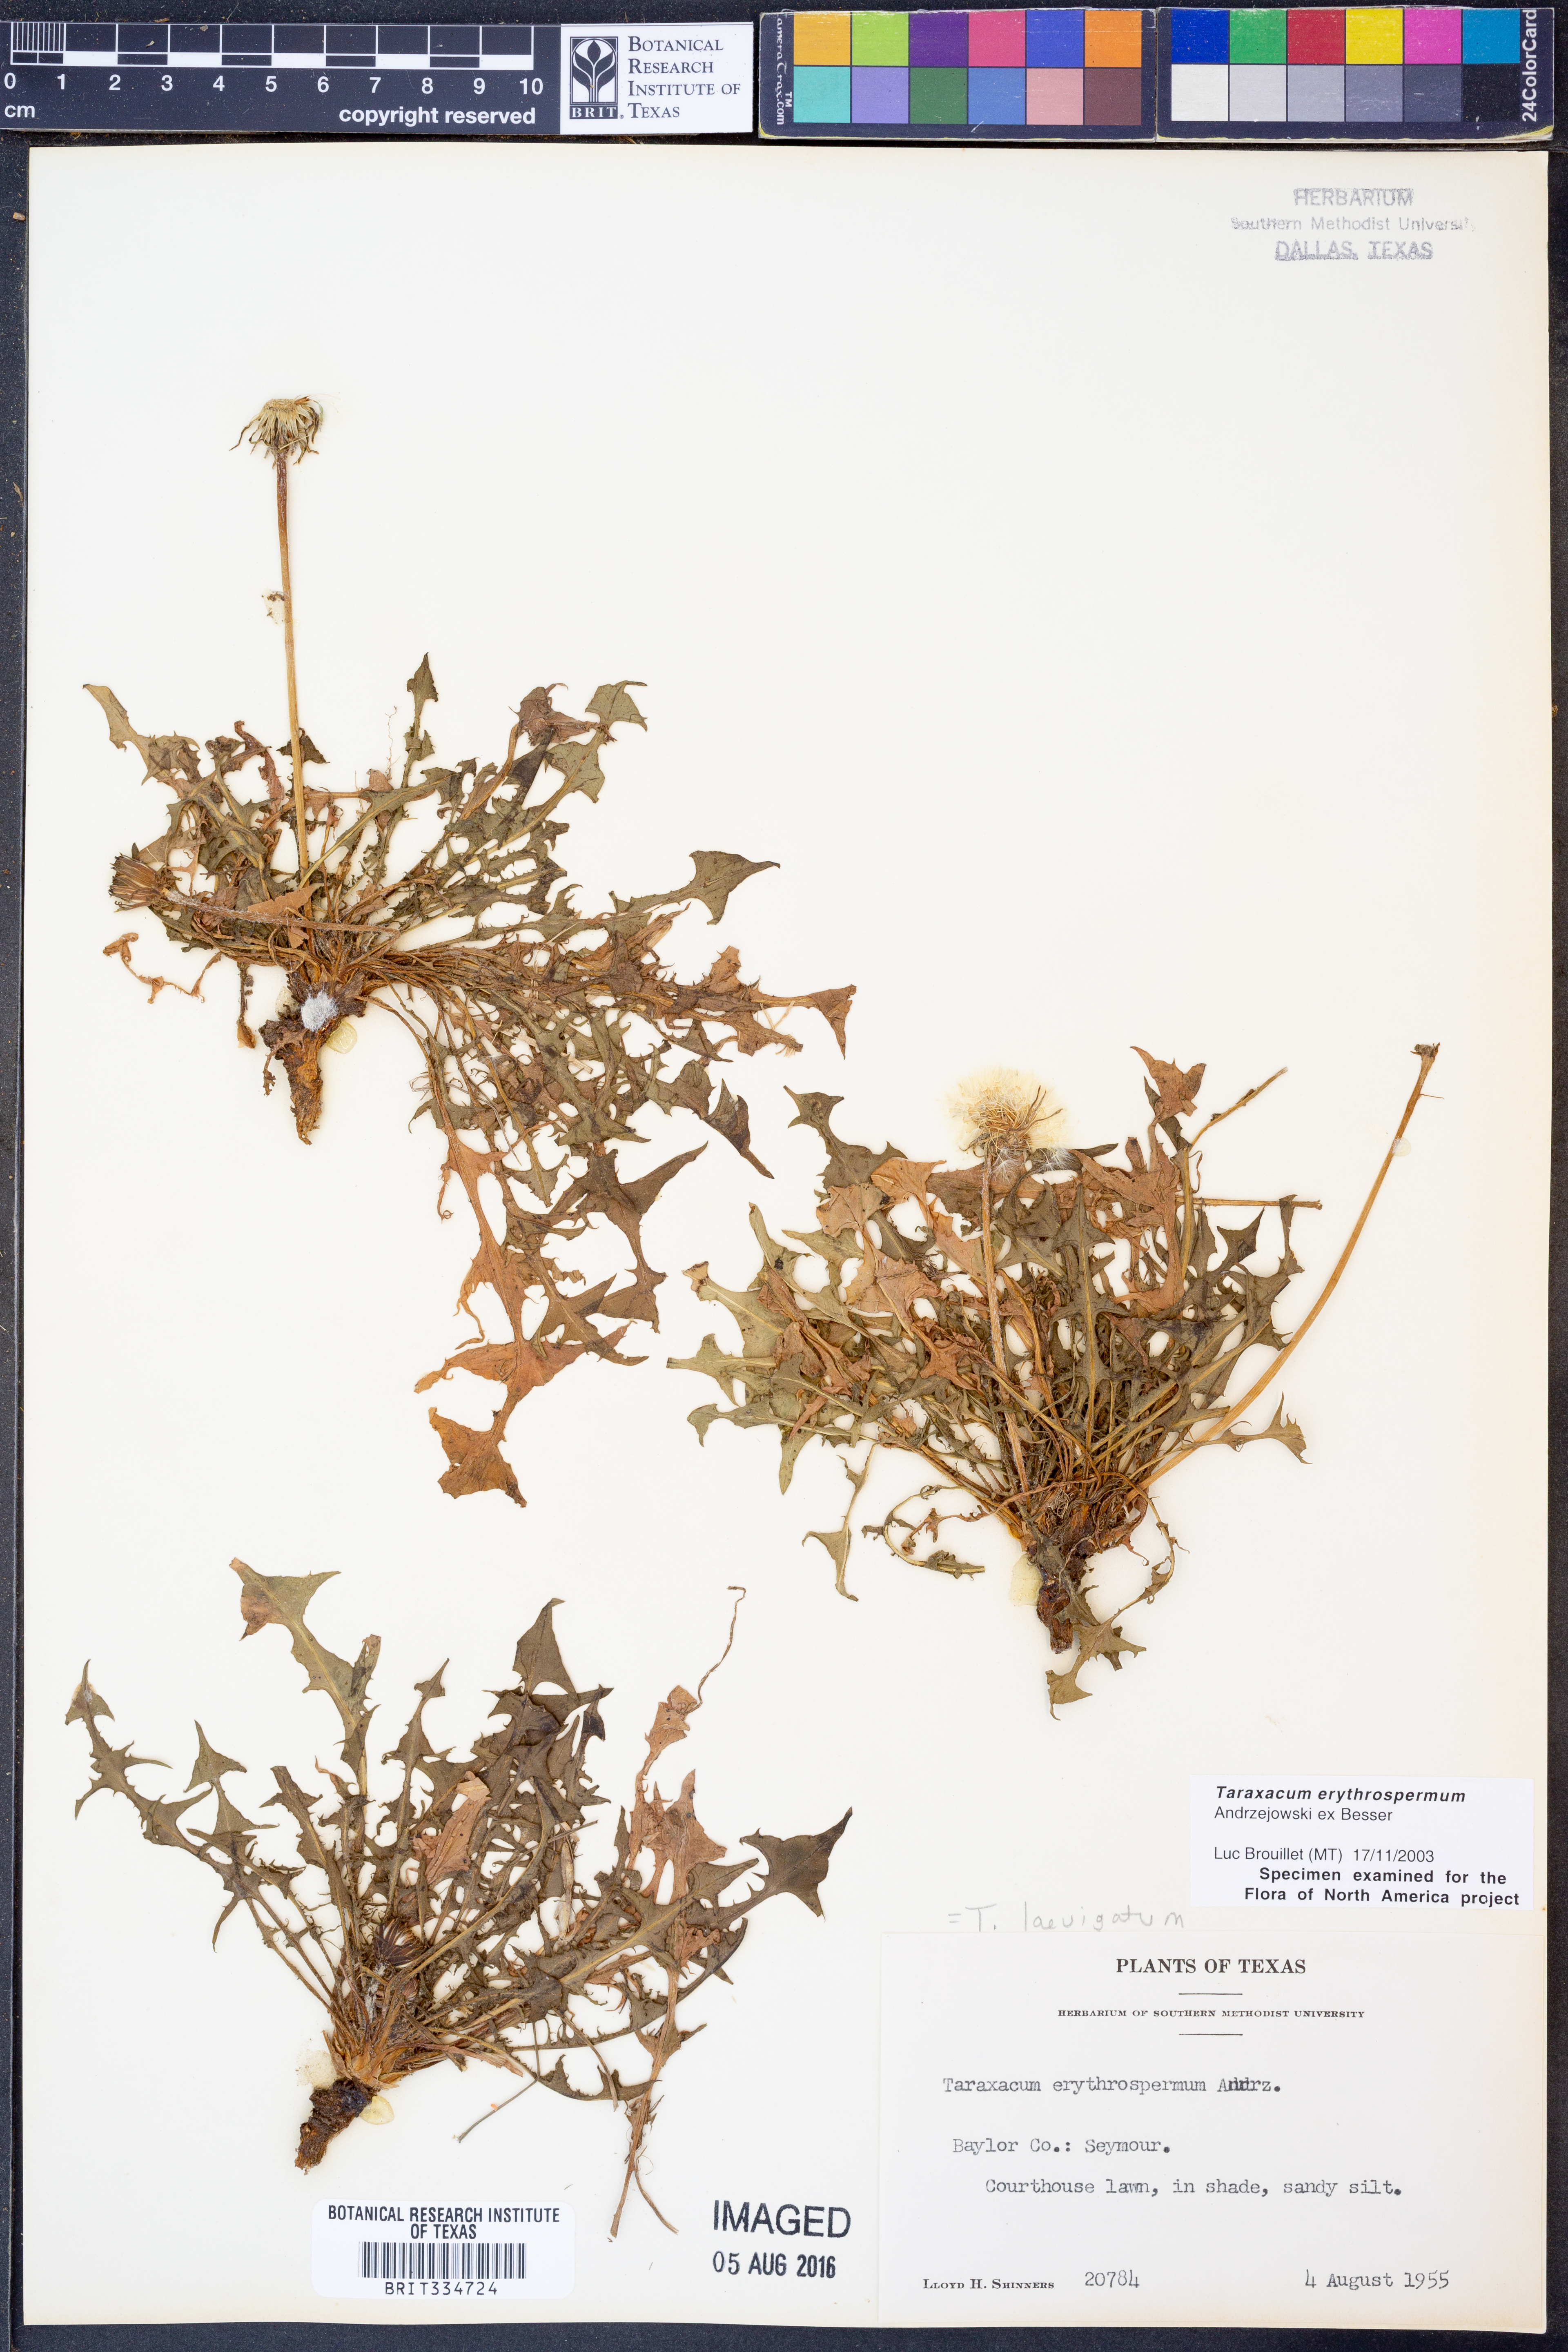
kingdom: Plantae
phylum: Tracheophyta
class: Magnoliopsida
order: Asterales
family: Asteraceae
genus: Taraxacum
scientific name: Taraxacum erythrospermum
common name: Rock dandelion
